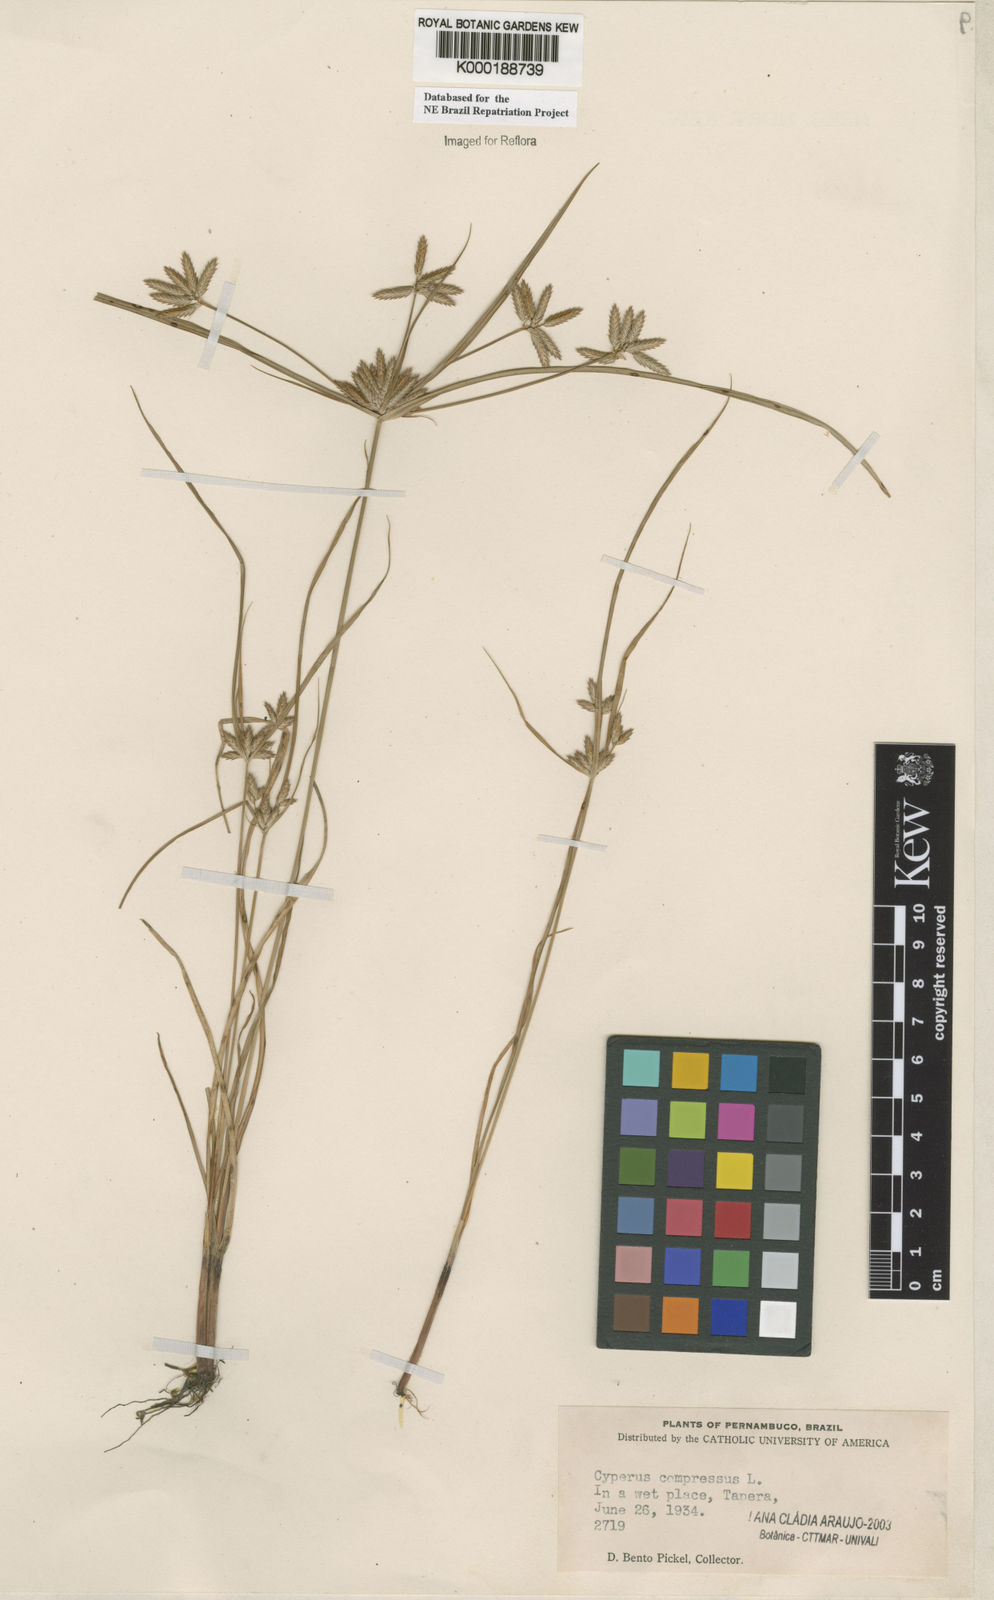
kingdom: Plantae
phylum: Tracheophyta
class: Liliopsida
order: Poales
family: Cyperaceae
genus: Cyperus
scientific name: Cyperus compressus
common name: Poorland flatsedge
